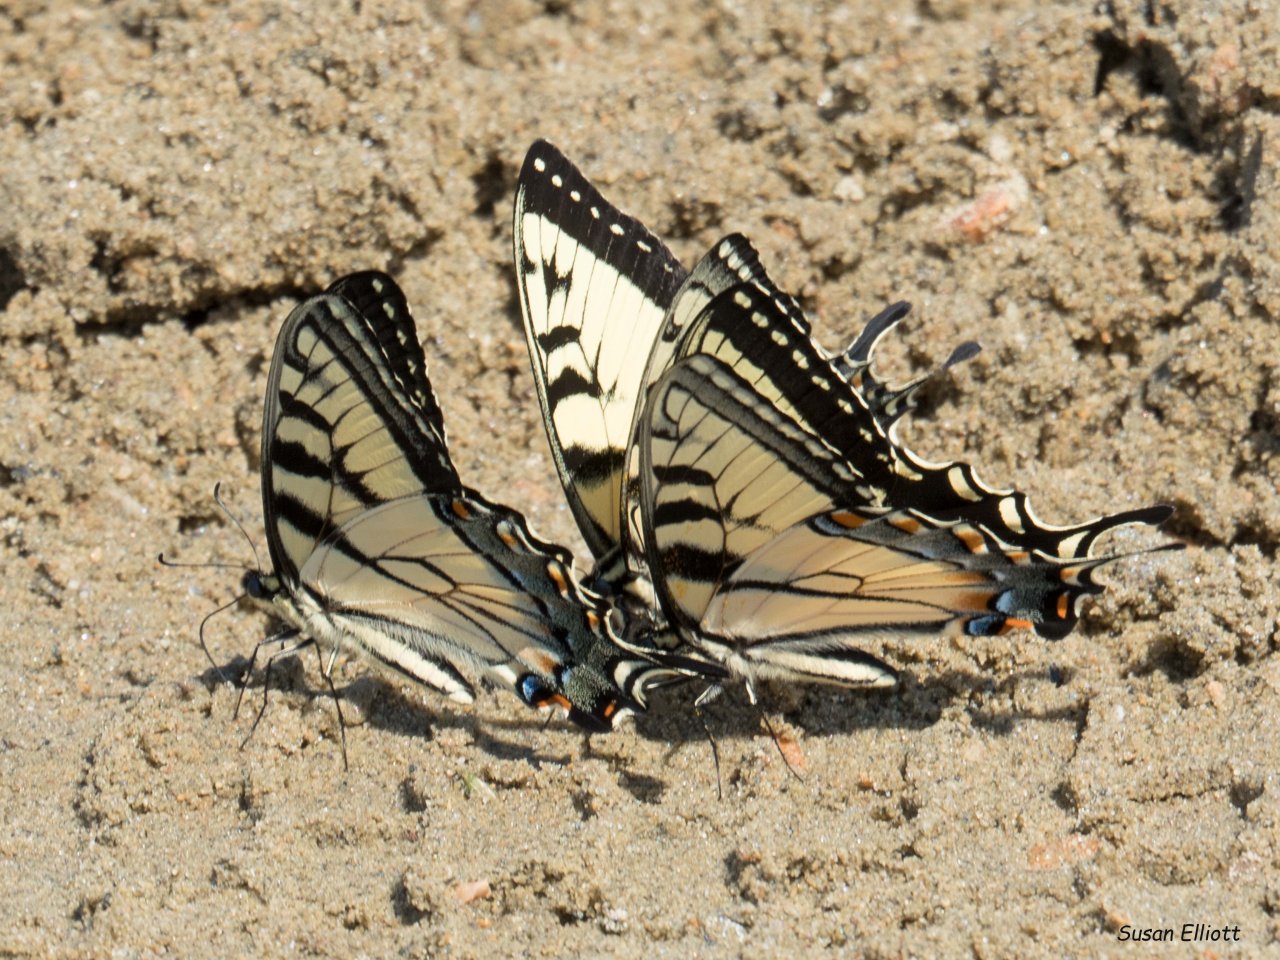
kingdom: Animalia
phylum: Arthropoda
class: Insecta
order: Lepidoptera
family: Papilionidae
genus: Pterourus
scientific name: Pterourus
